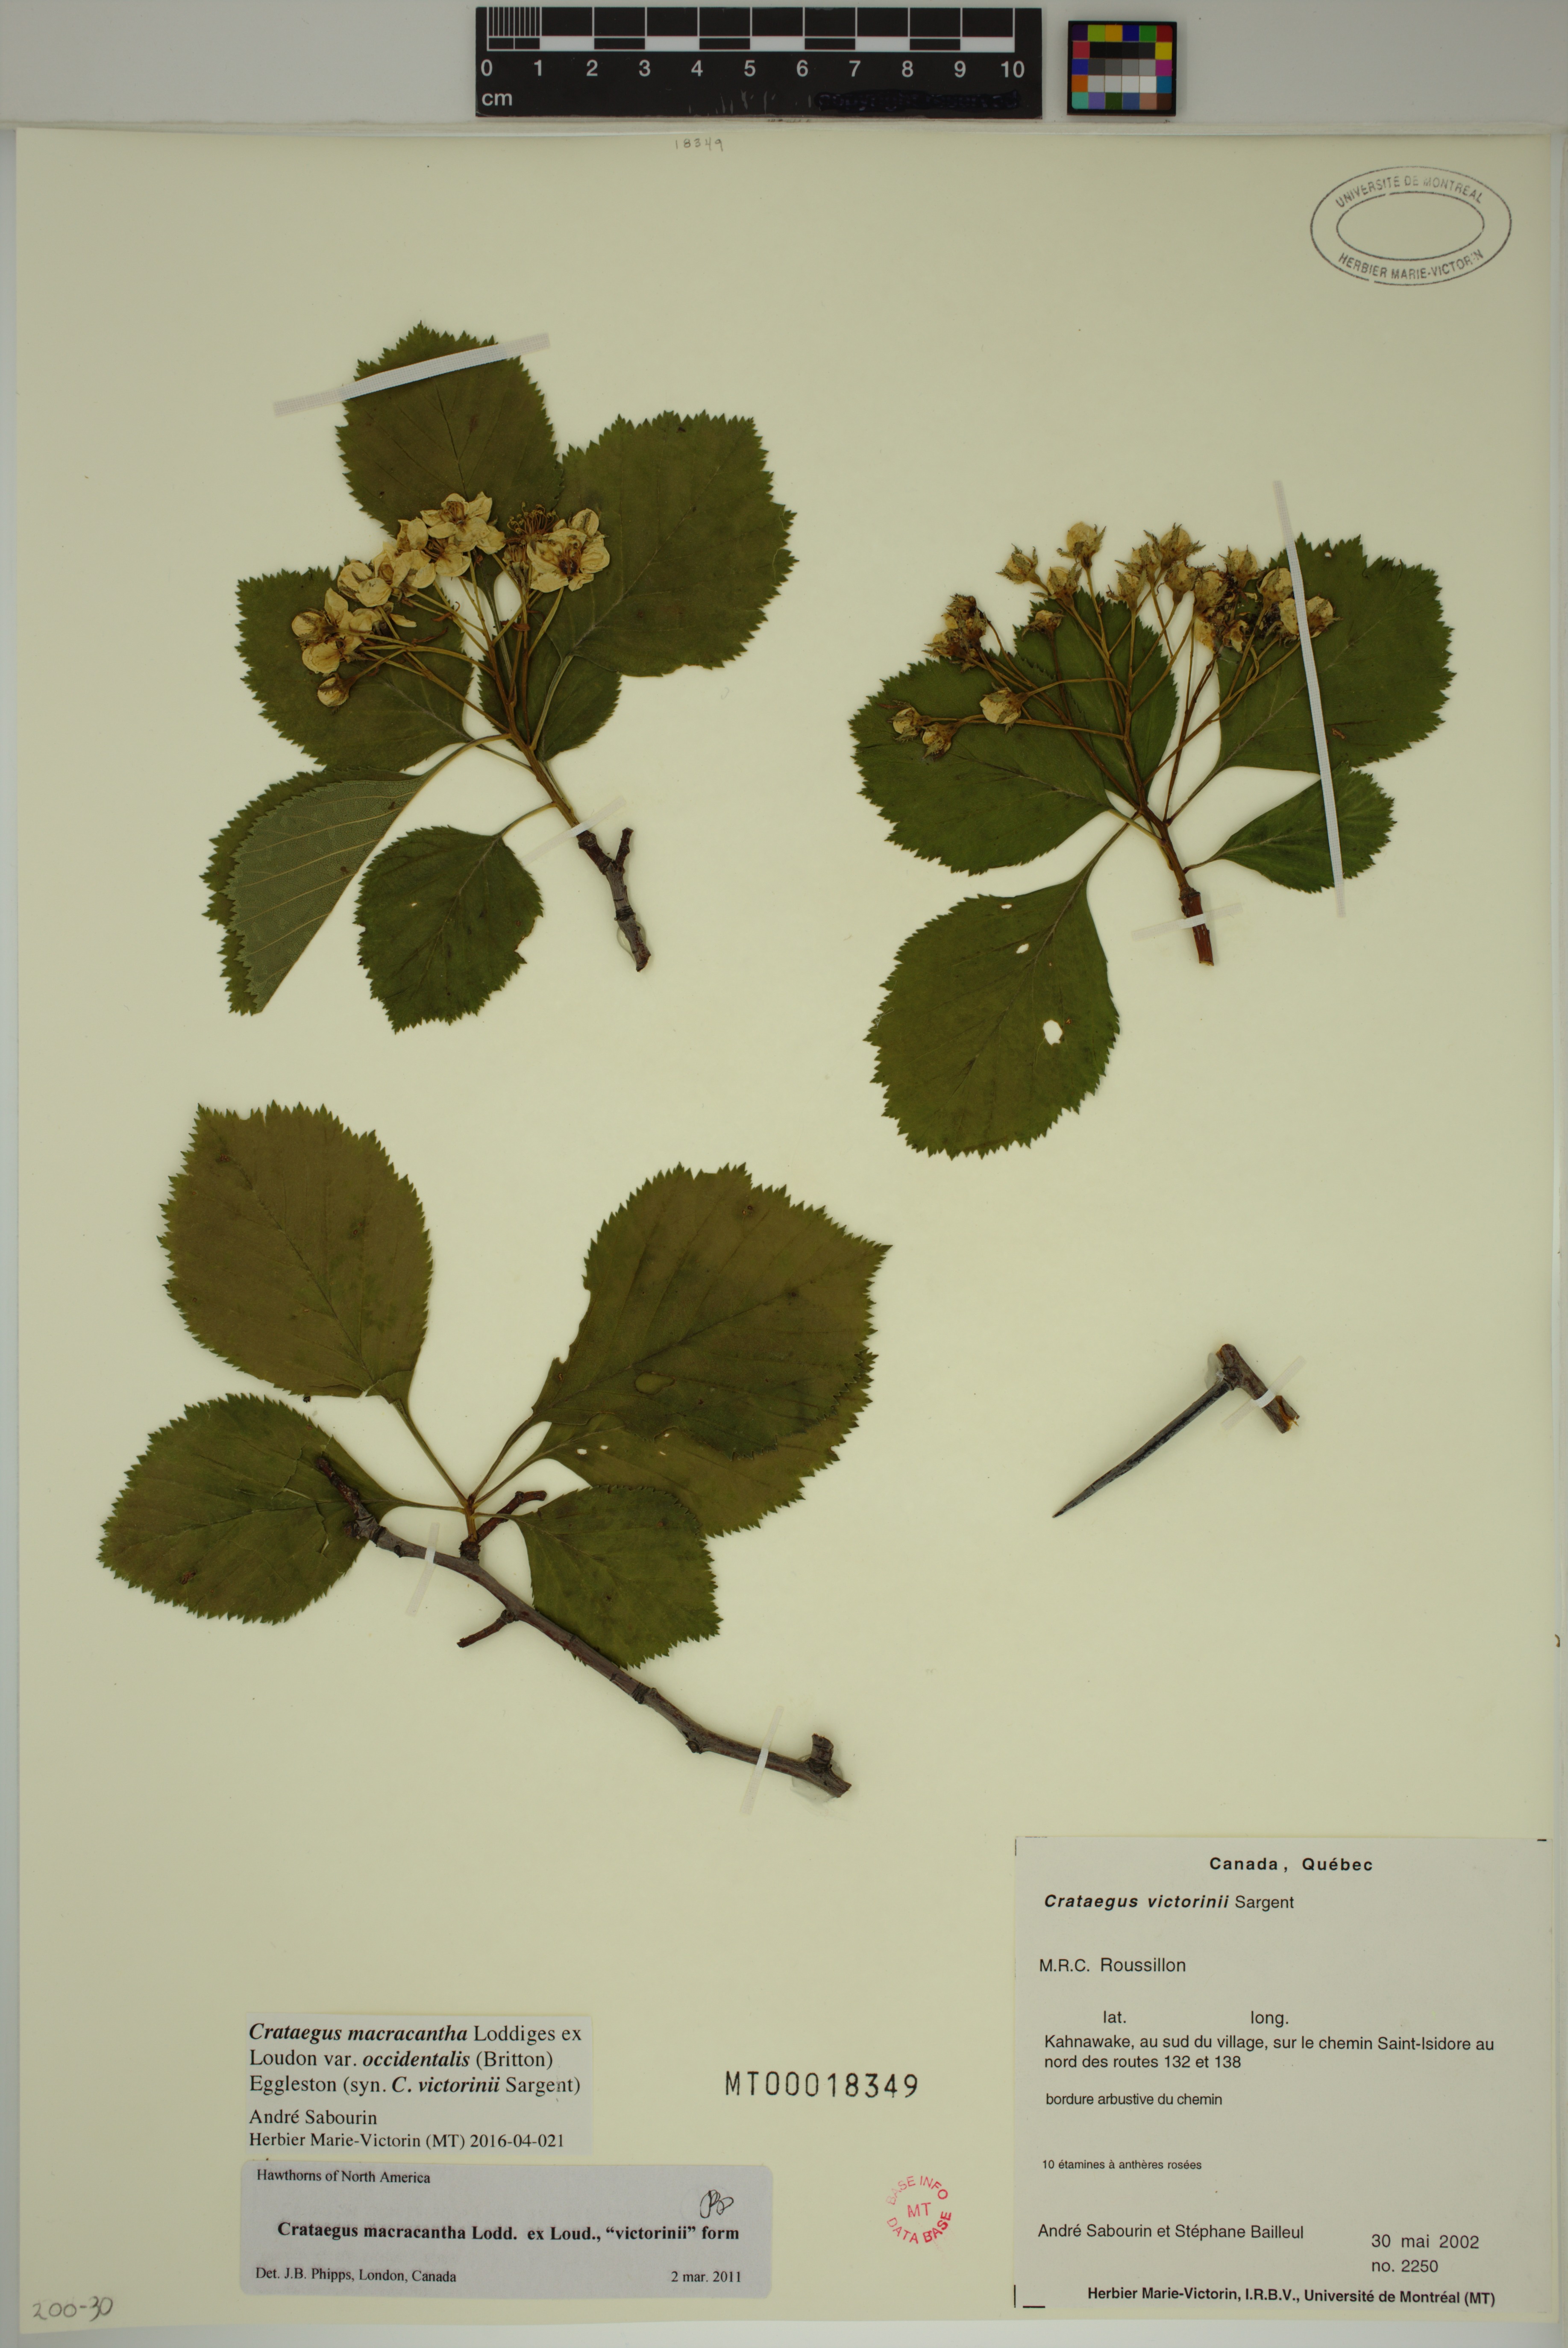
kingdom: Plantae
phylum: Tracheophyta
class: Magnoliopsida
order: Rosales
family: Rosaceae
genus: Crataegus
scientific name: Crataegus macracantha
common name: Large-thorn hawthorn
